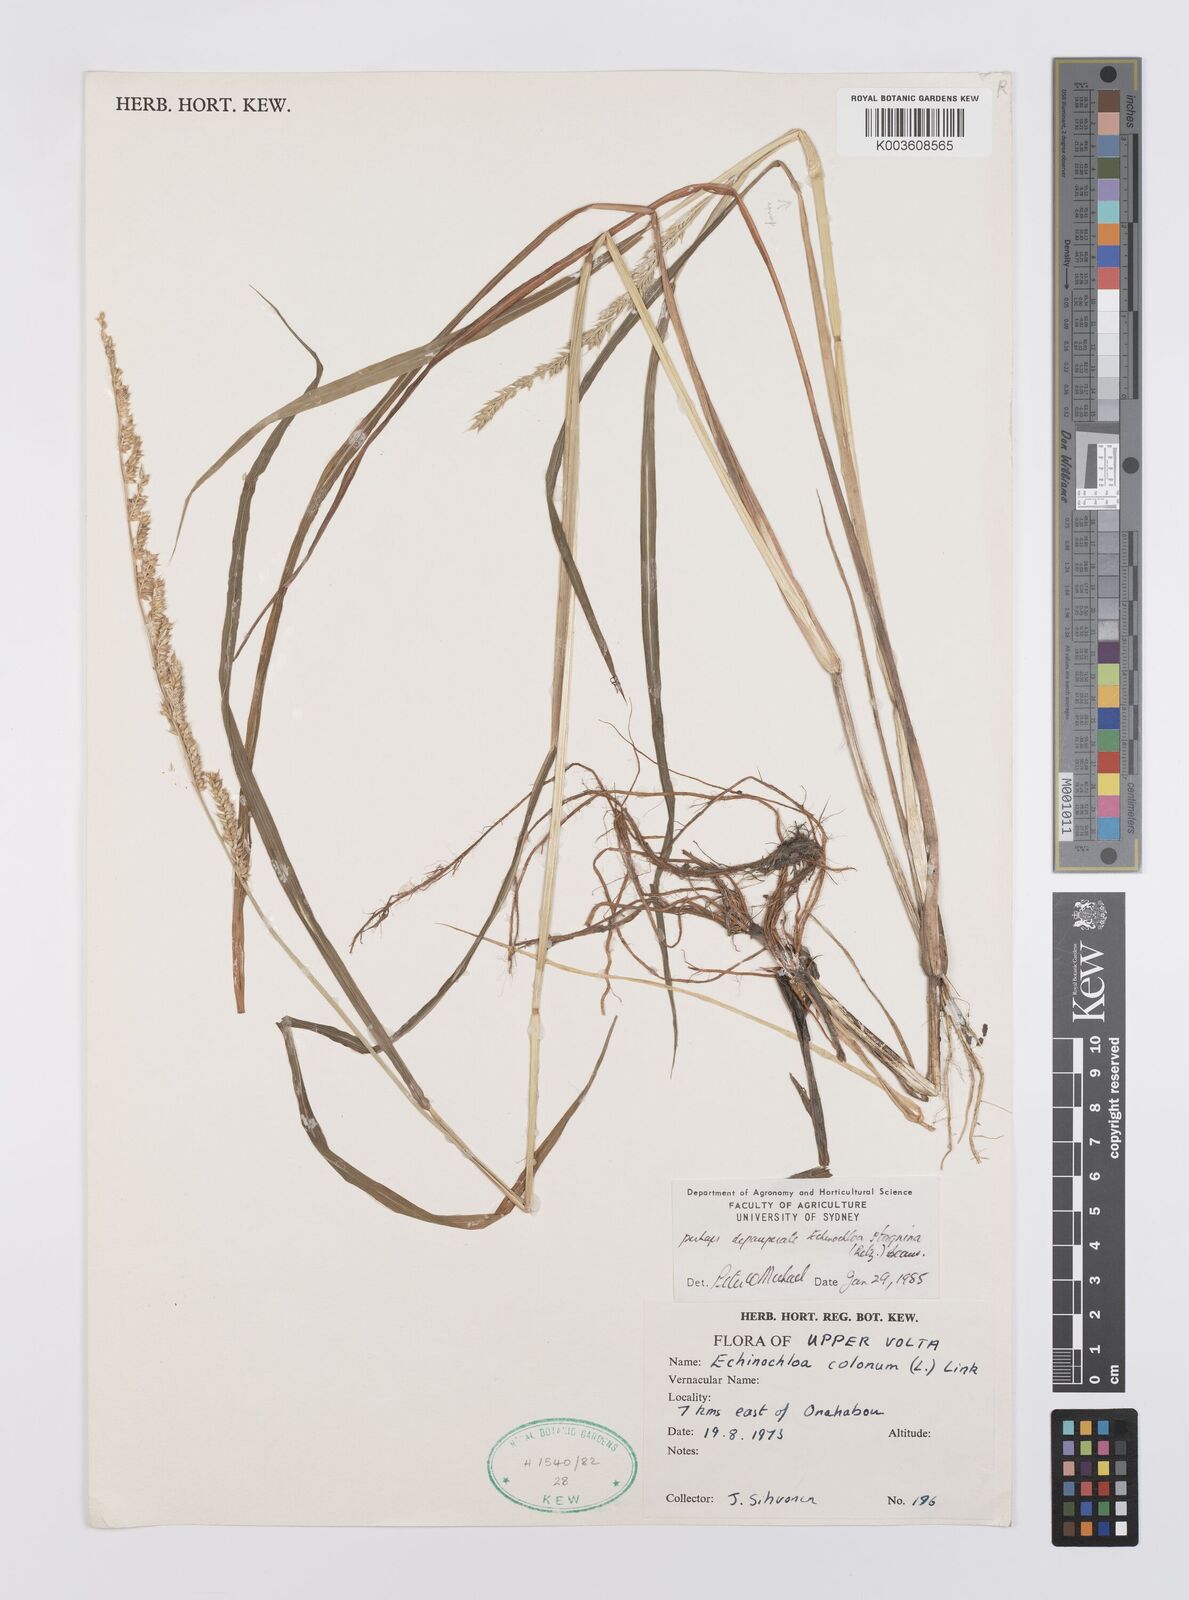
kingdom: Plantae
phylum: Tracheophyta
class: Liliopsida
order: Poales
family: Poaceae
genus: Echinochloa
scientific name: Echinochloa ugandensis
